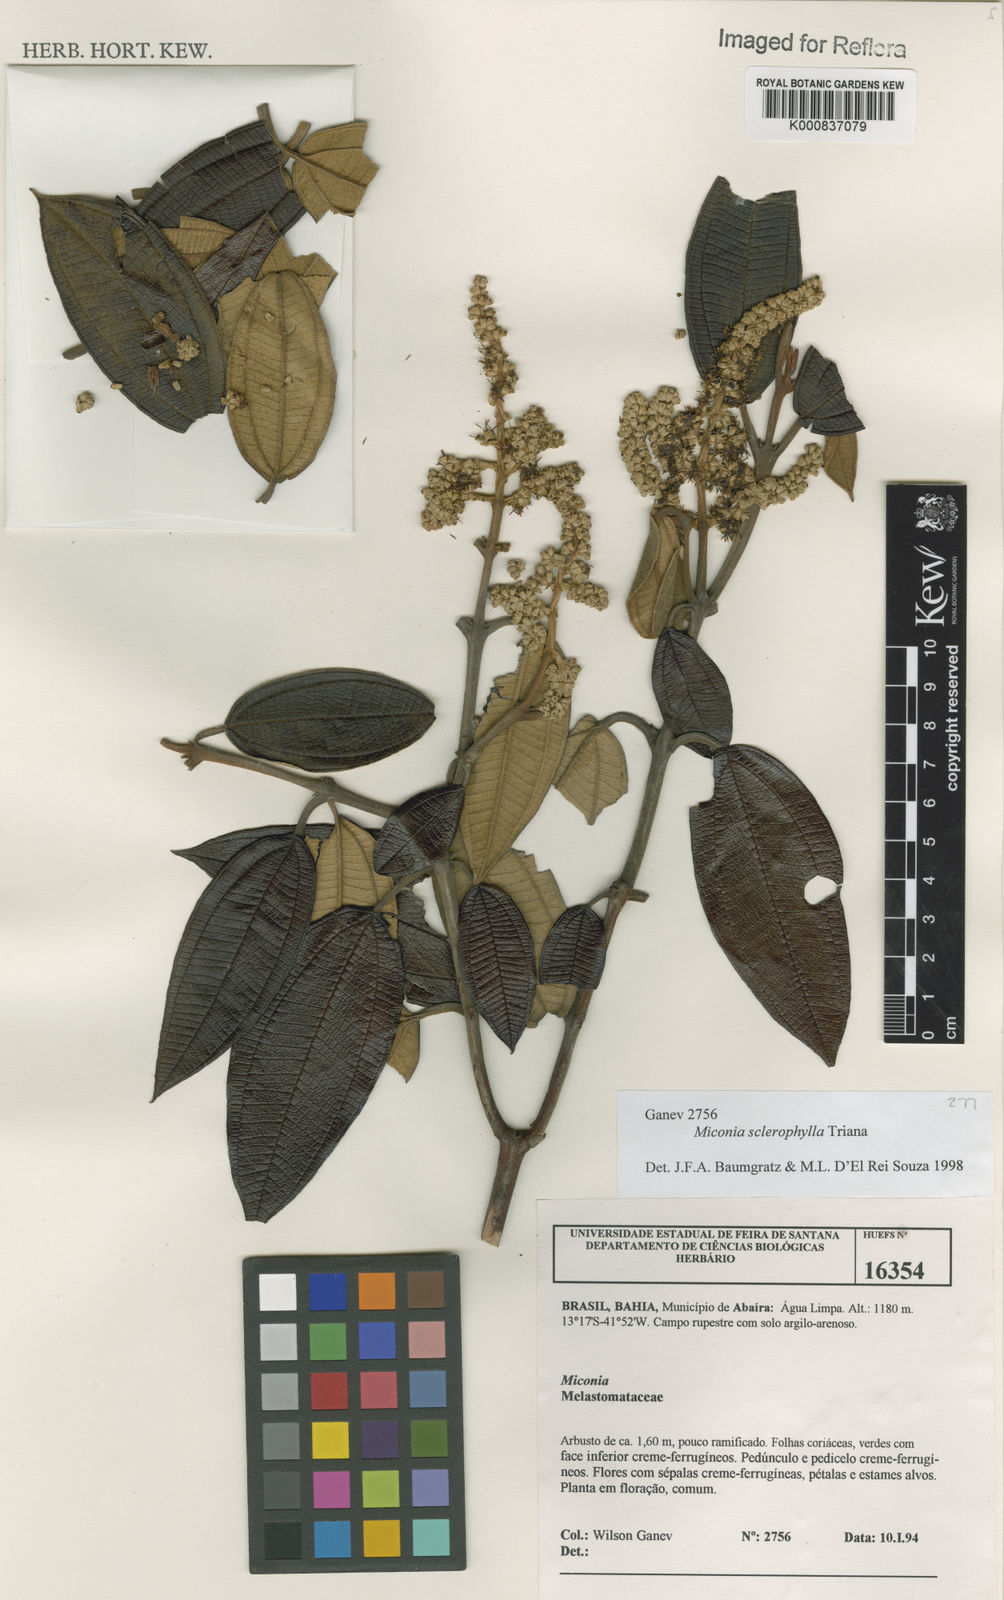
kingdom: Plantae
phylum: Tracheophyta
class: Magnoliopsida
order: Myrtales
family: Melastomataceae
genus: Miconia
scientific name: Miconia sclerophylla
